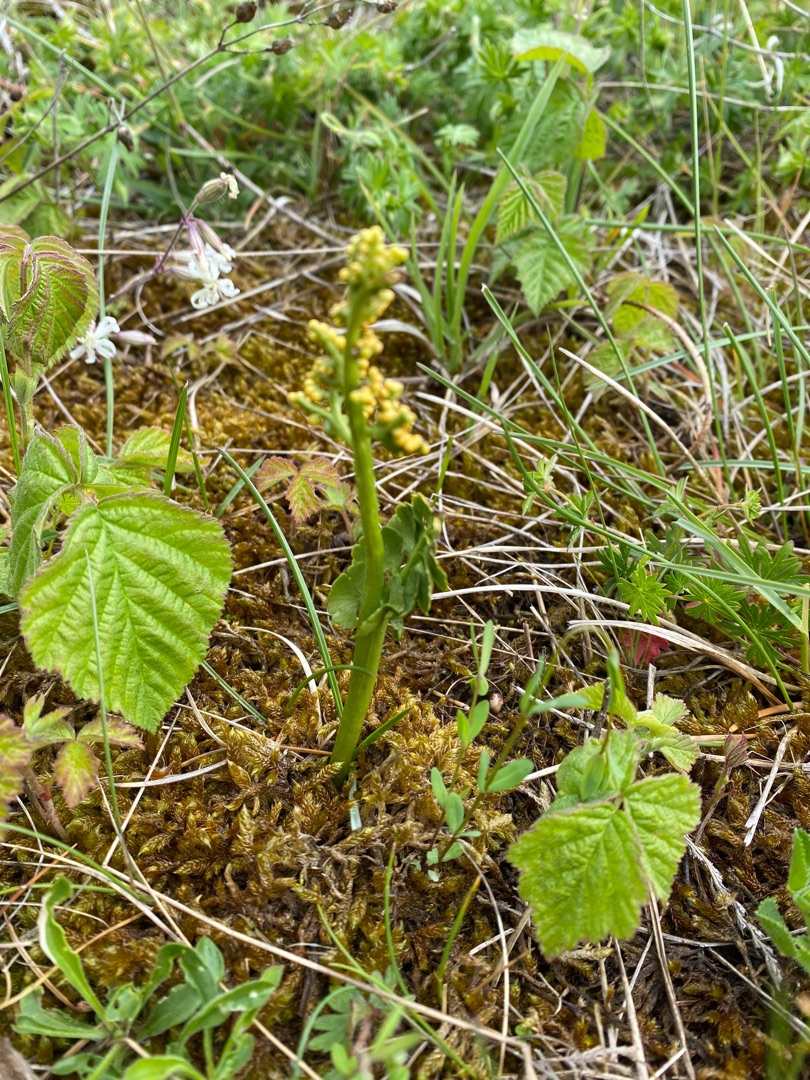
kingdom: Plantae
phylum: Tracheophyta
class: Polypodiopsida
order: Ophioglossales
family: Ophioglossaceae
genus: Botrychium
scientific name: Botrychium lunaria
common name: Almindelig månerude
